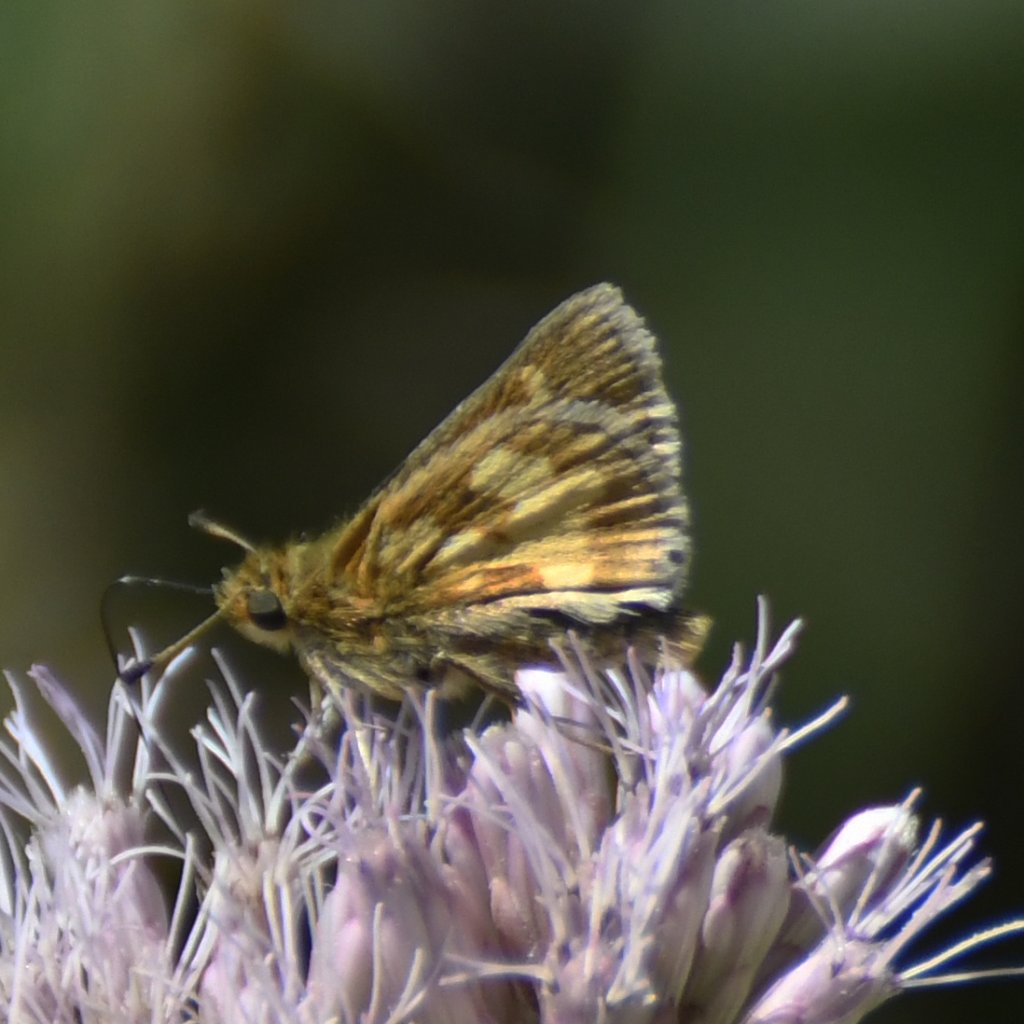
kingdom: Animalia
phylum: Arthropoda
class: Insecta
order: Lepidoptera
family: Hesperiidae
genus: Polites
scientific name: Polites coras
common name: Peck's Skipper
